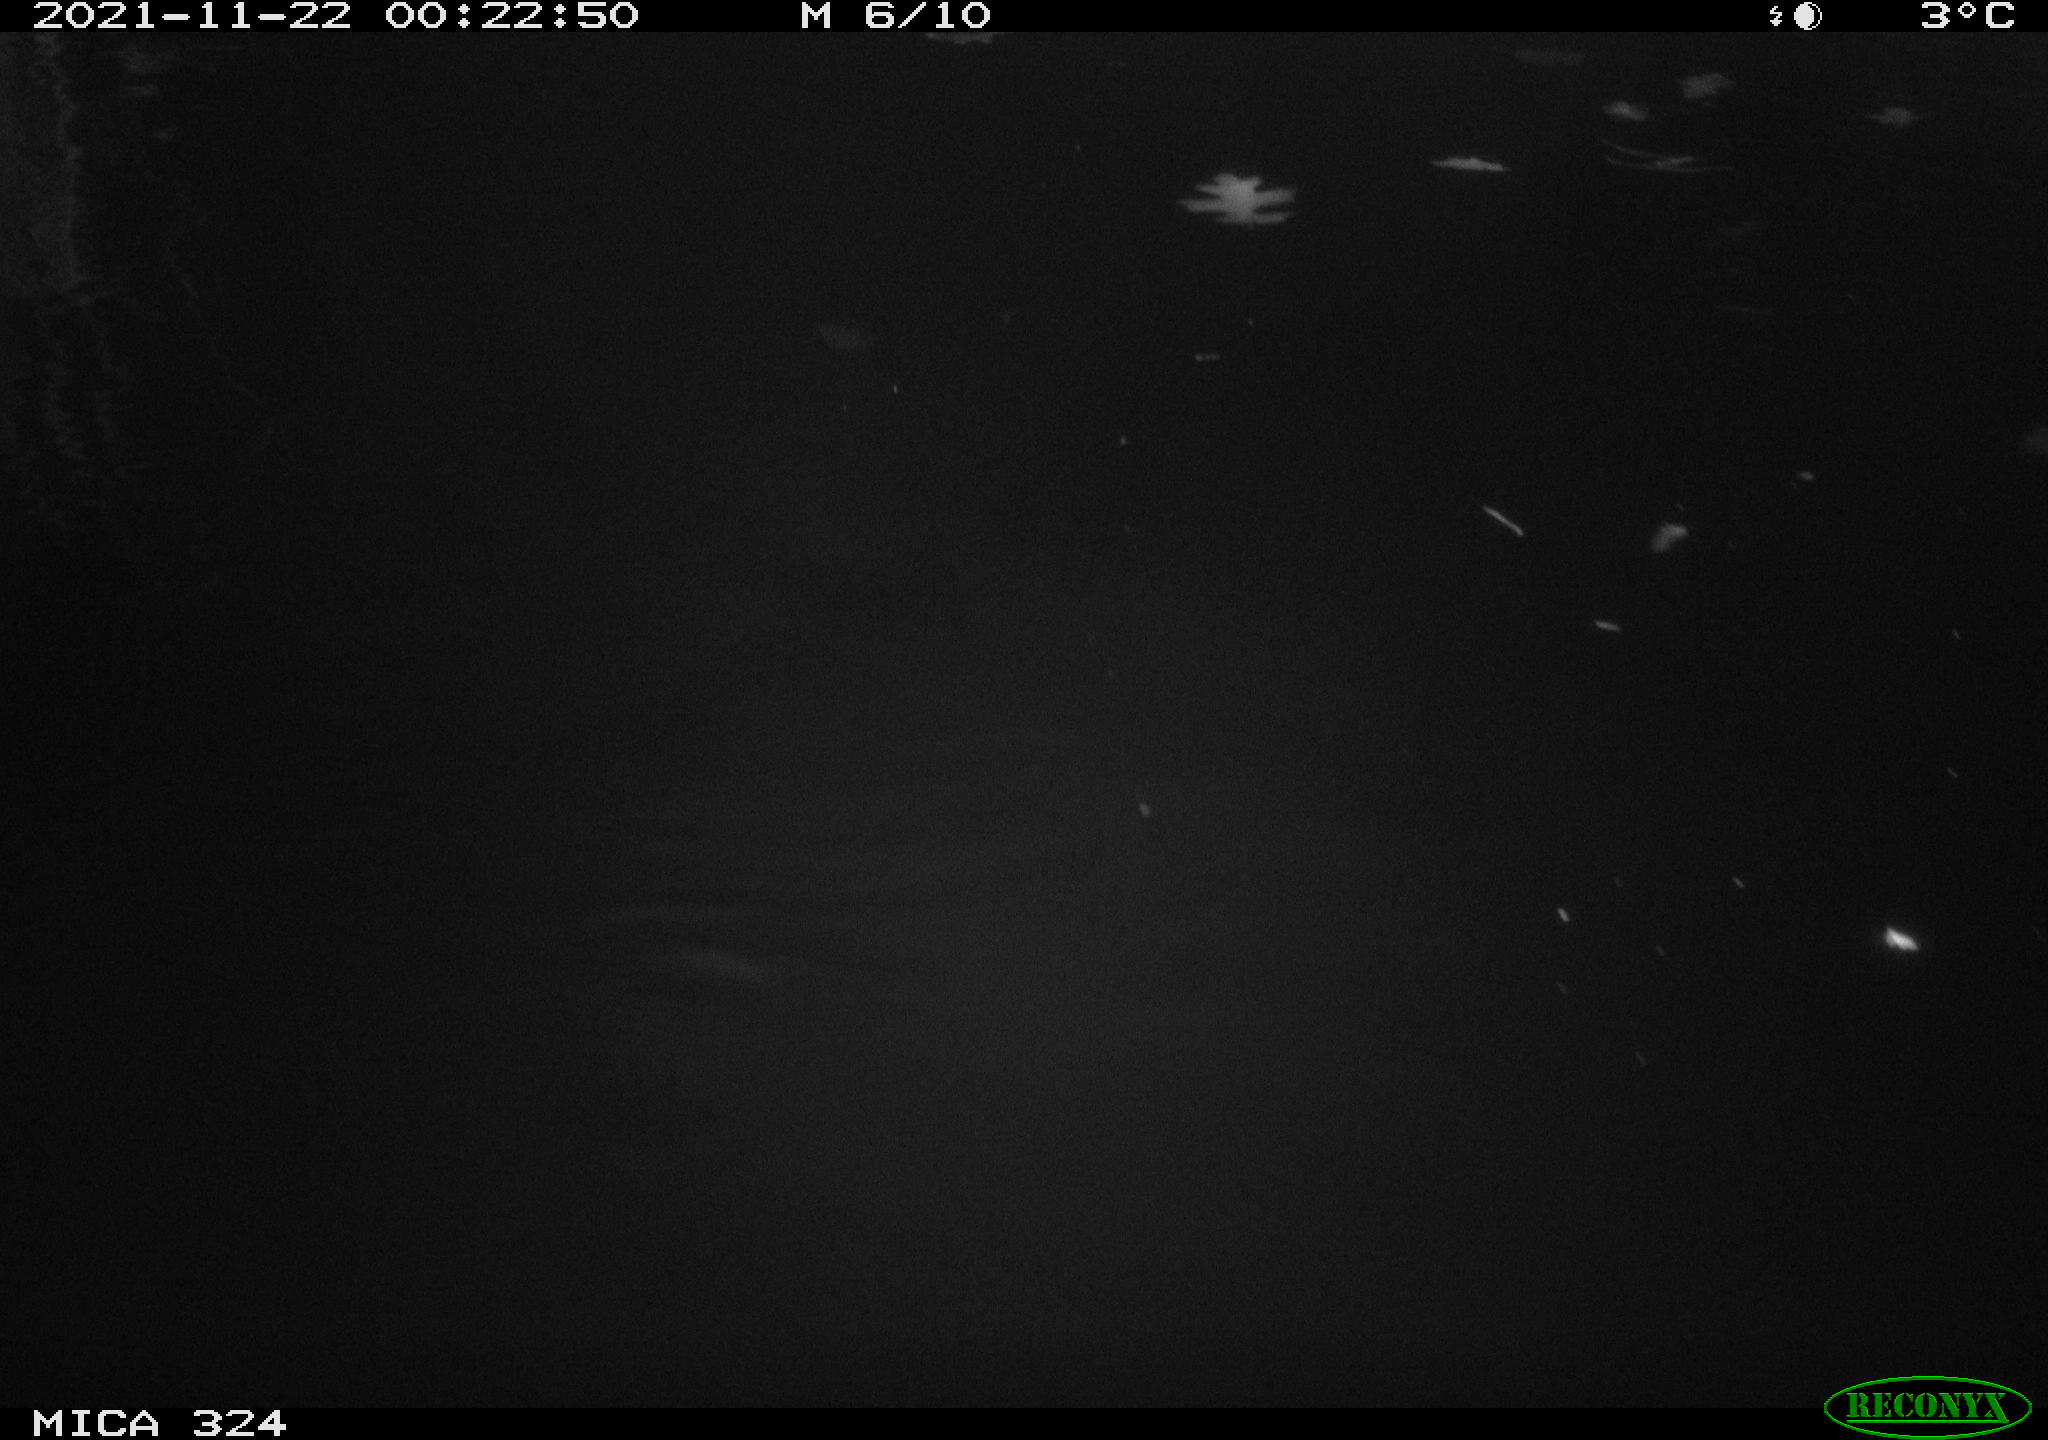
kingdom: Animalia
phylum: Chordata
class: Mammalia
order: Rodentia
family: Cricetidae
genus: Ondatra
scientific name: Ondatra zibethicus
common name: Muskrat
